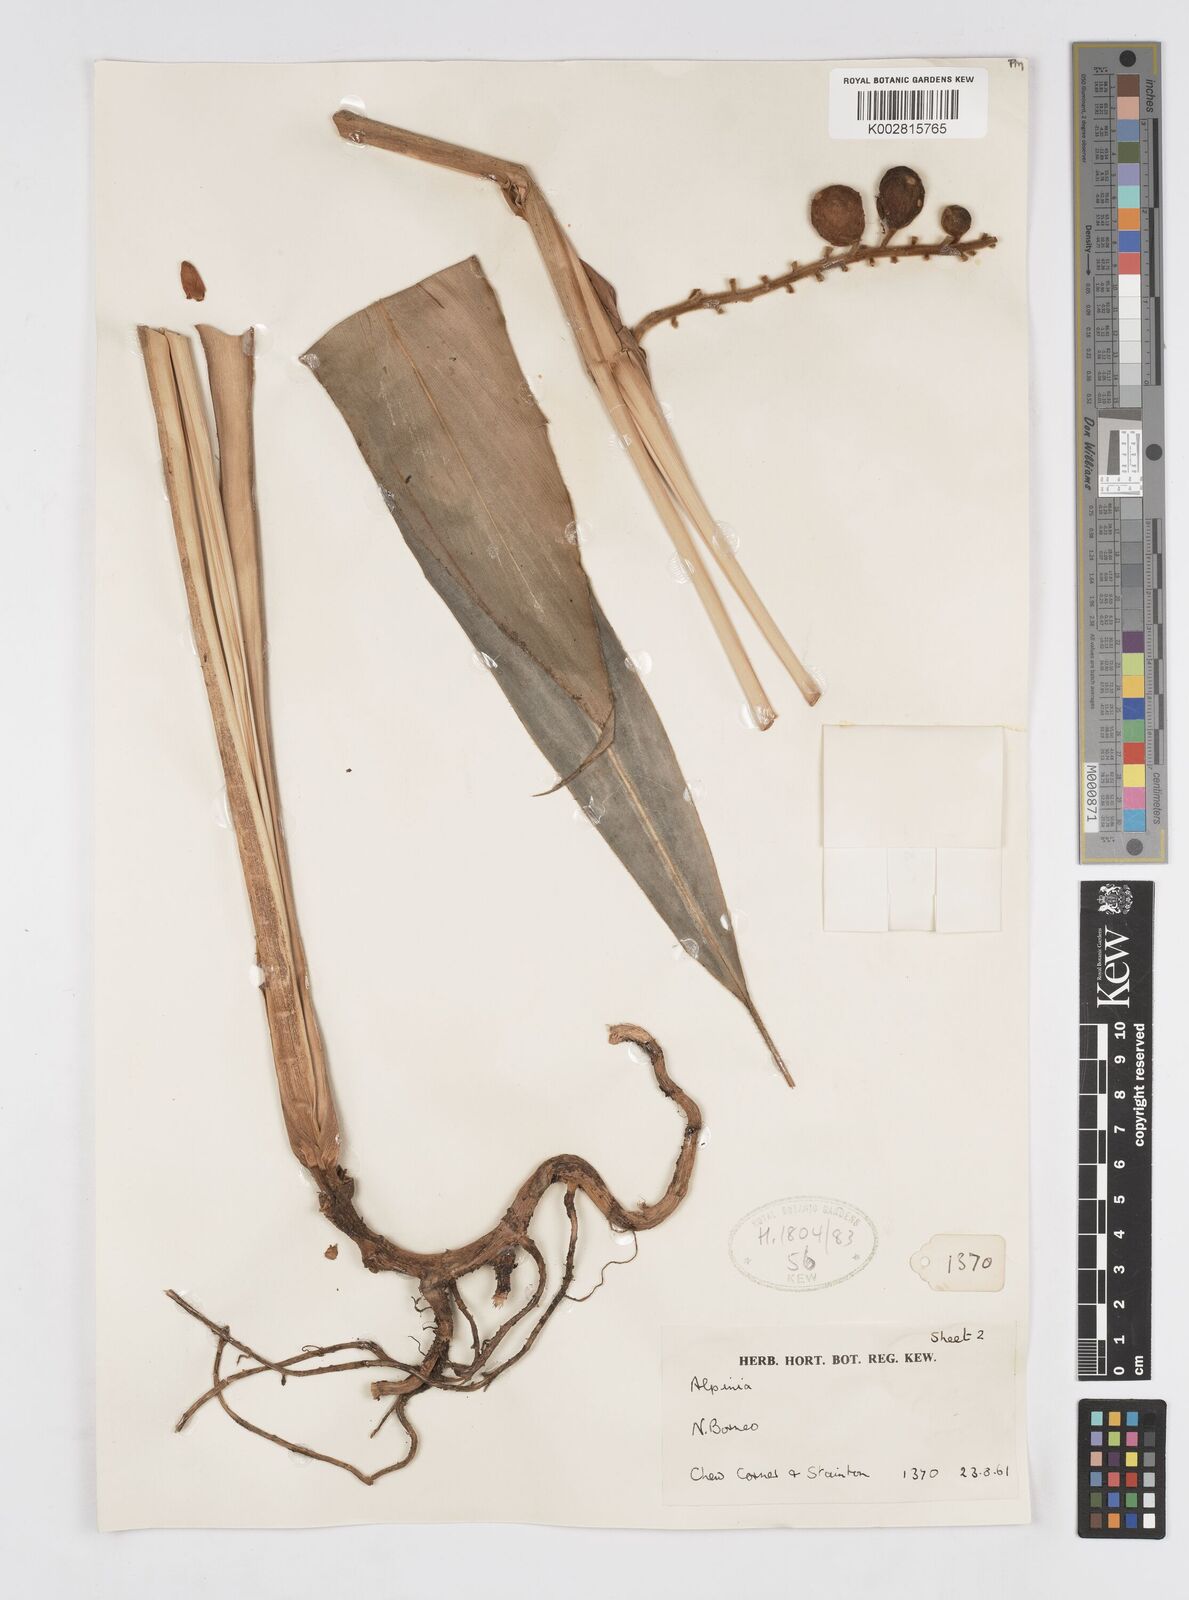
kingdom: Plantae
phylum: Tracheophyta
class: Liliopsida
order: Zingiberales
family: Zingiberaceae
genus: Alpinia
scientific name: Alpinia havilandii
